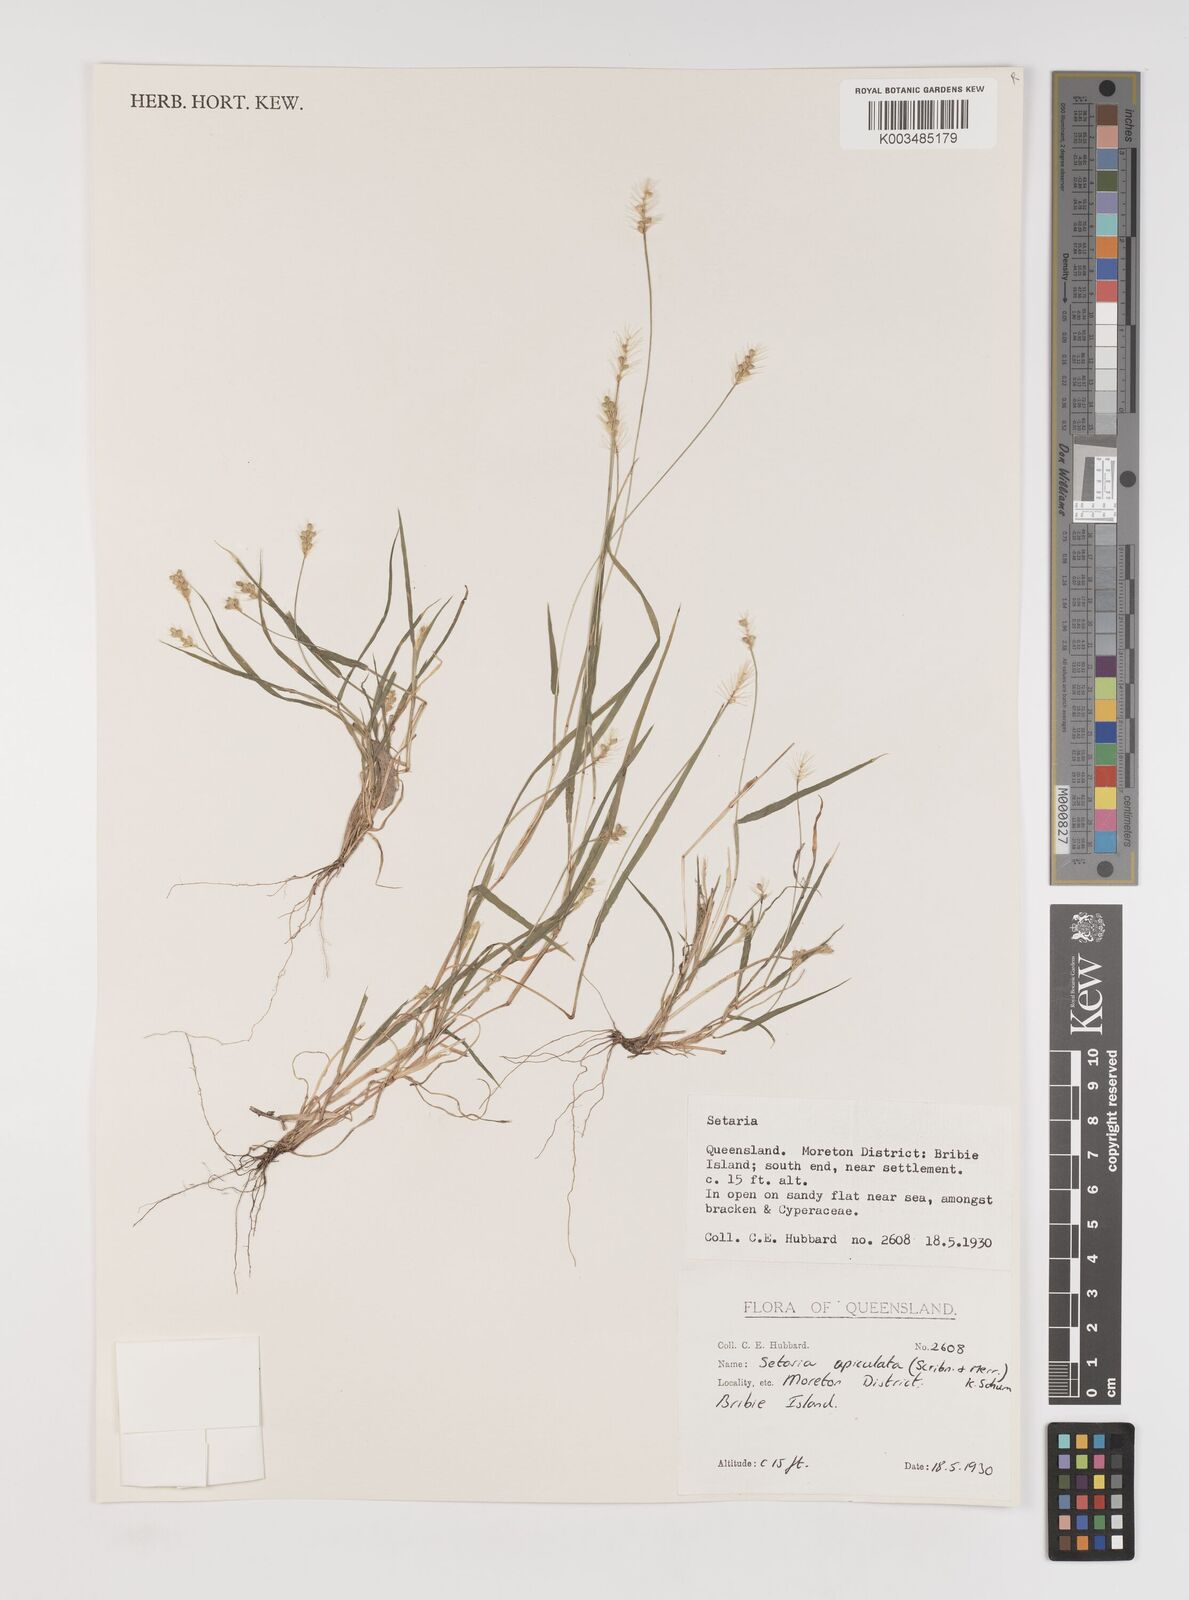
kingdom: Plantae
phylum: Tracheophyta
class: Liliopsida
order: Poales
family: Poaceae
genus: Setaria
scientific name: Setaria apiculata
